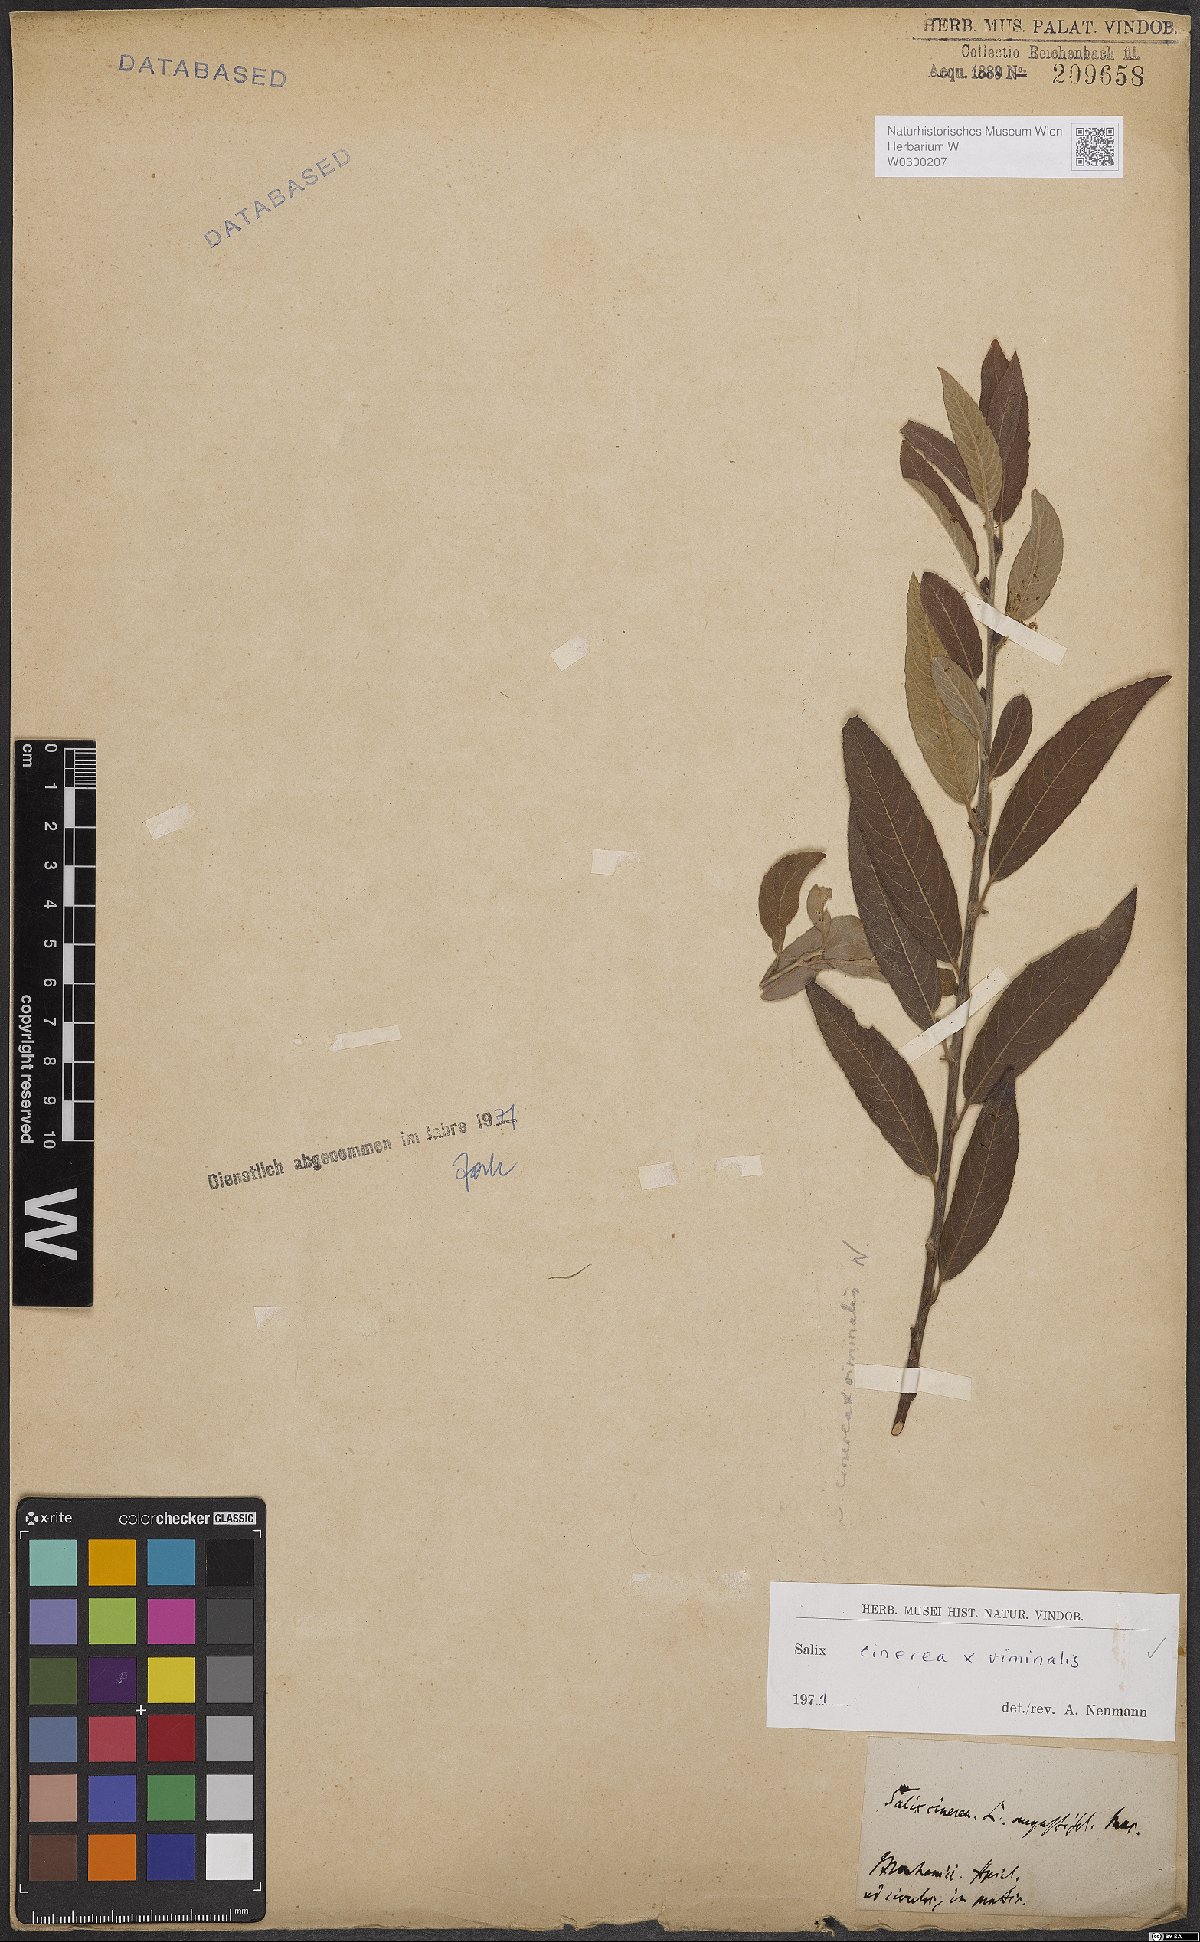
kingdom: Plantae
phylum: Tracheophyta
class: Magnoliopsida
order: Malpighiales
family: Salicaceae
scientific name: Salicaceae
